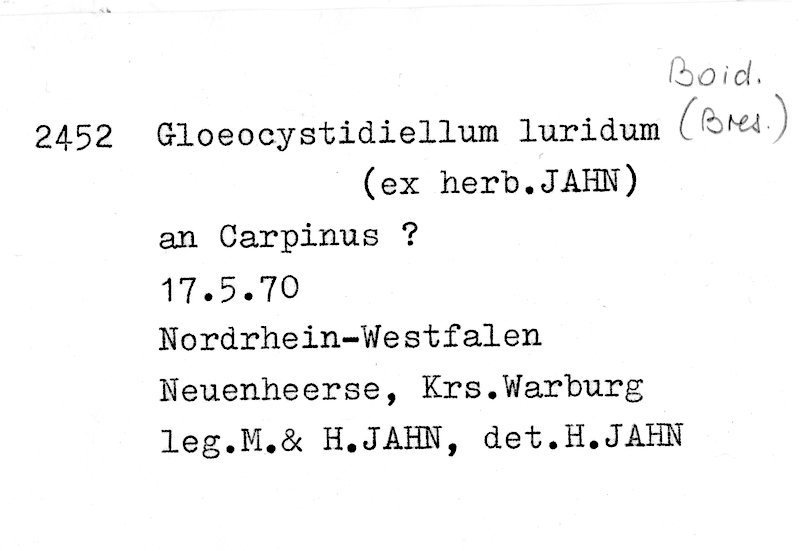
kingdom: Fungi
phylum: Basidiomycota
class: Agaricomycetes
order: Russulales
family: Stereaceae
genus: Gloeocystidiellum
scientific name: Gloeocystidiellum luridum
